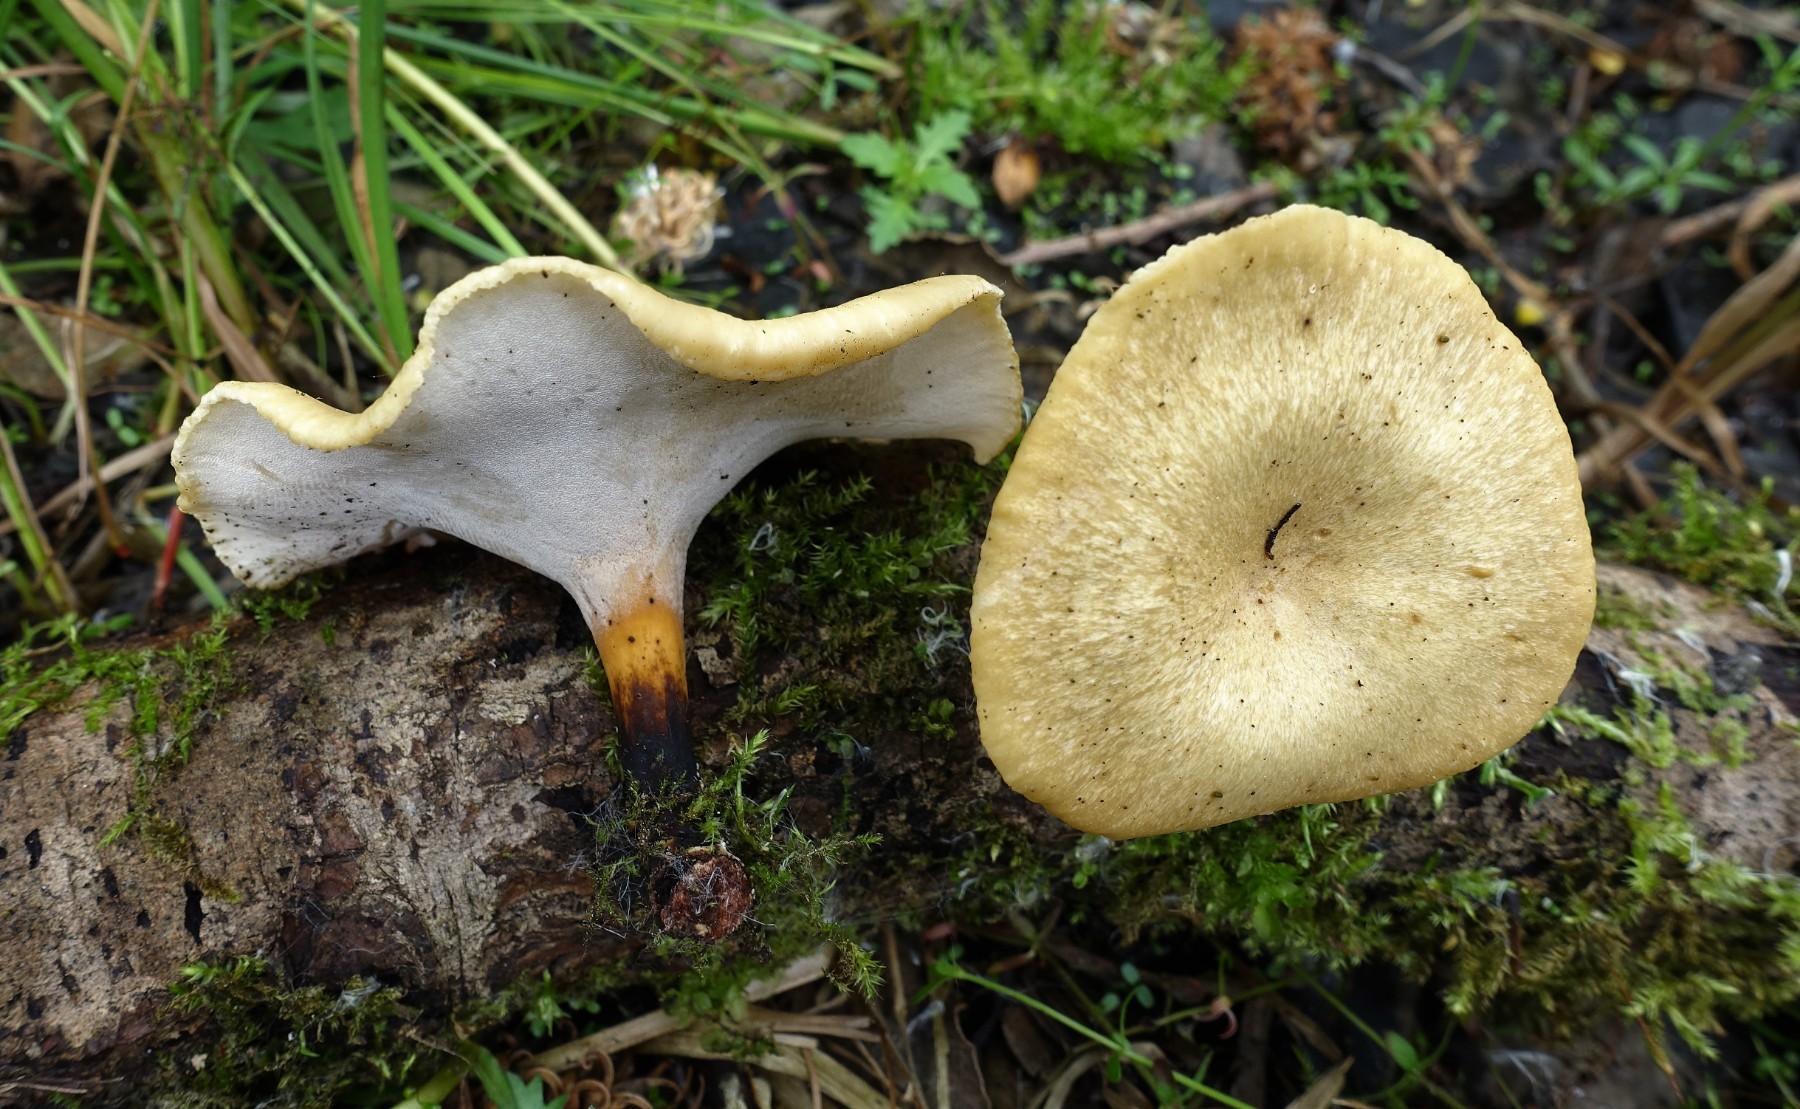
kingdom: Fungi
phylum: Basidiomycota
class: Agaricomycetes
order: Polyporales
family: Polyporaceae
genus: Cerioporus
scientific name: Cerioporus varius
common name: foranderlig stilkporesvamp
